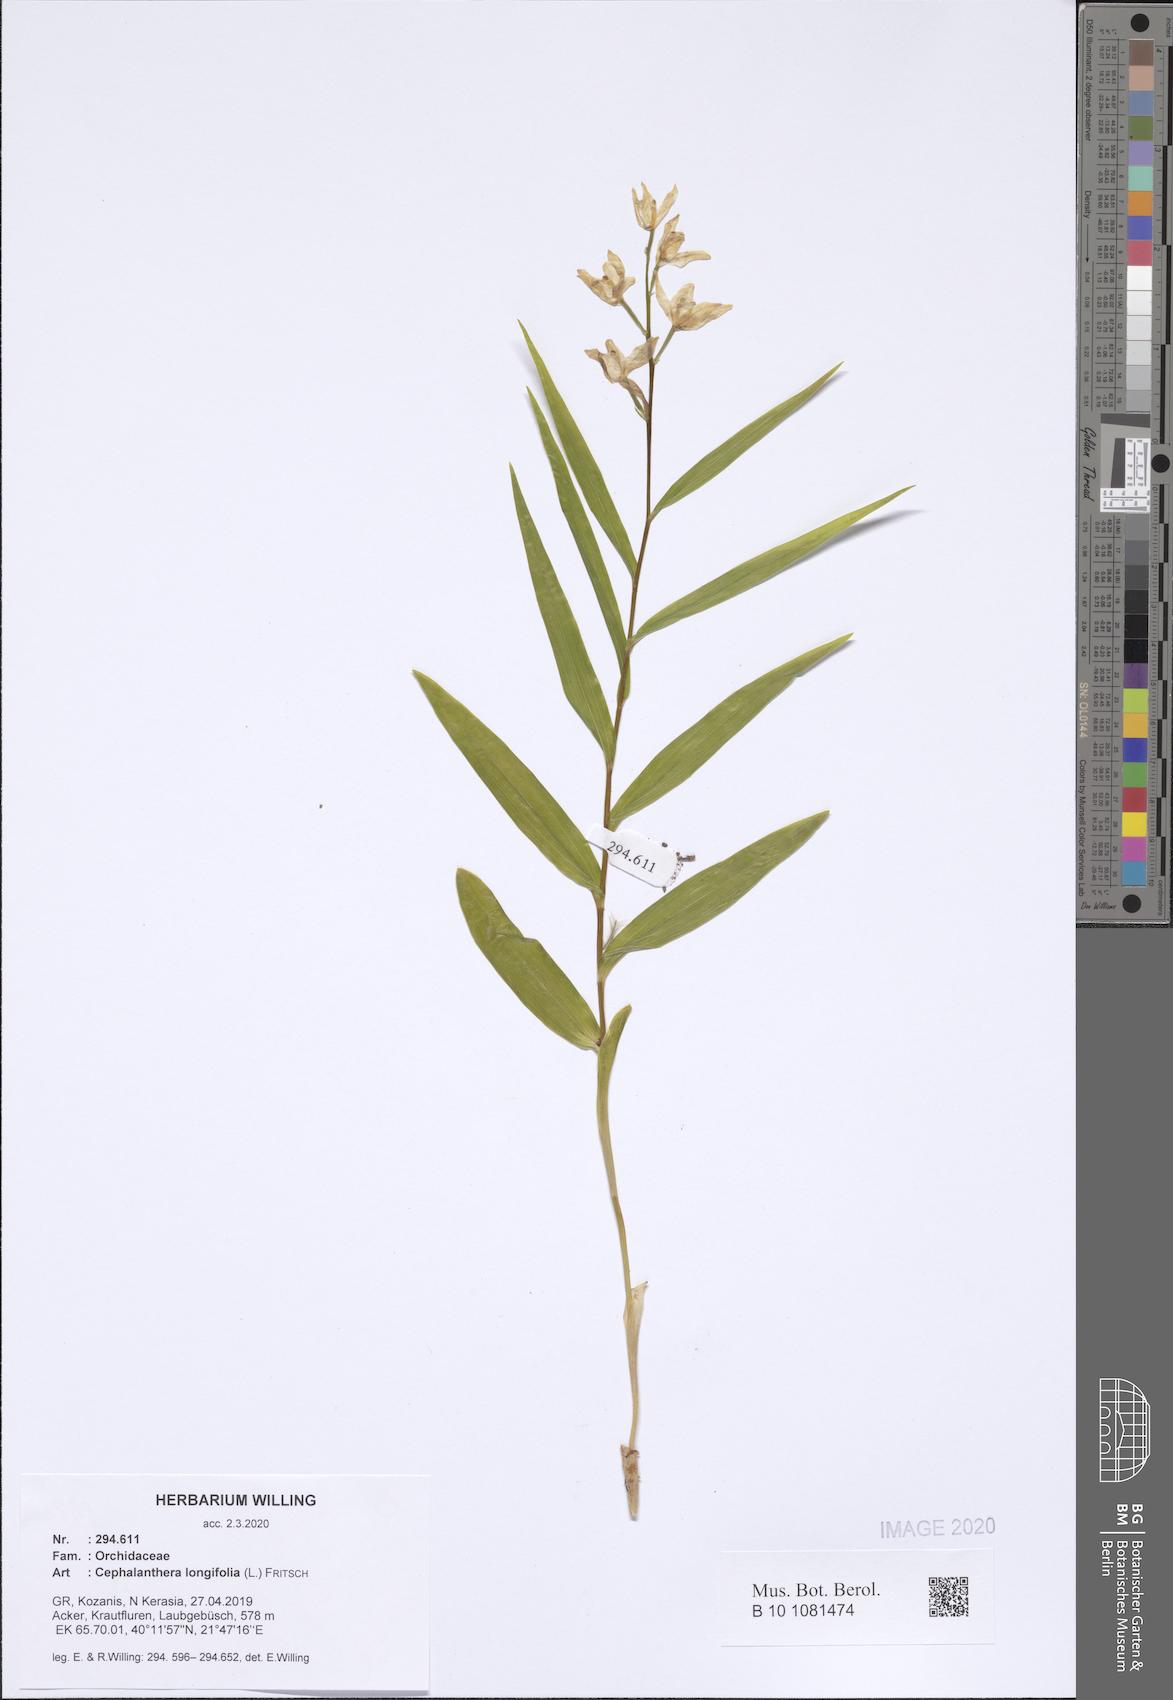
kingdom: Plantae
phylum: Tracheophyta
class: Liliopsida
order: Asparagales
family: Orchidaceae
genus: Cephalanthera
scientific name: Cephalanthera longifolia
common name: Narrow-leaved helleborine
